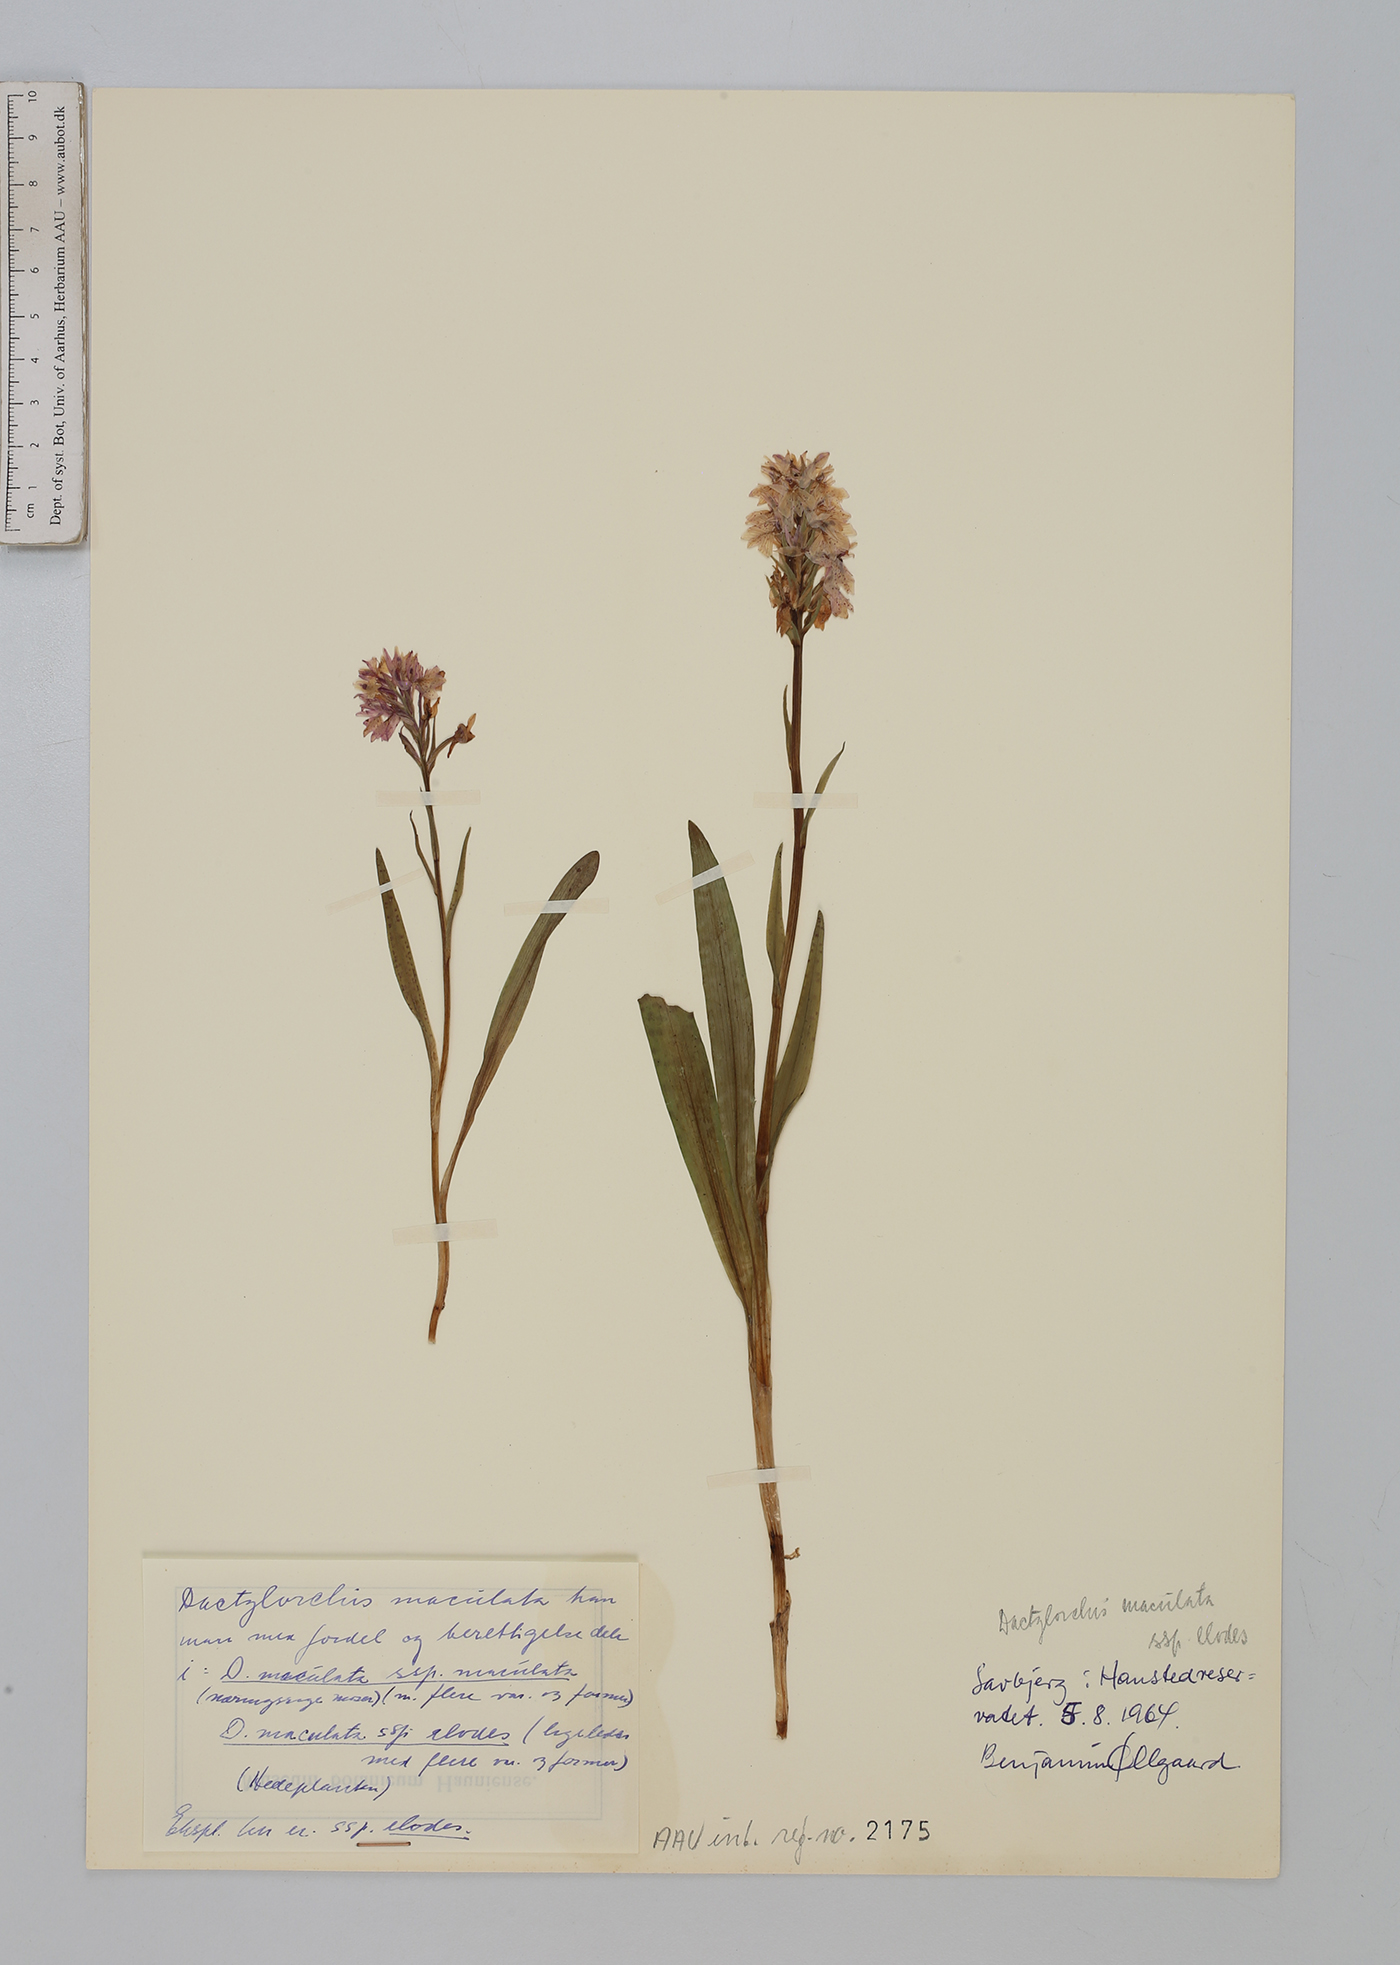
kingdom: Plantae
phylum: Tracheophyta
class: Liliopsida
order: Asparagales
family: Orchidaceae
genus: Dactylorhiza
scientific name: Dactylorhiza maculata
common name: Heath spotted-orchid
